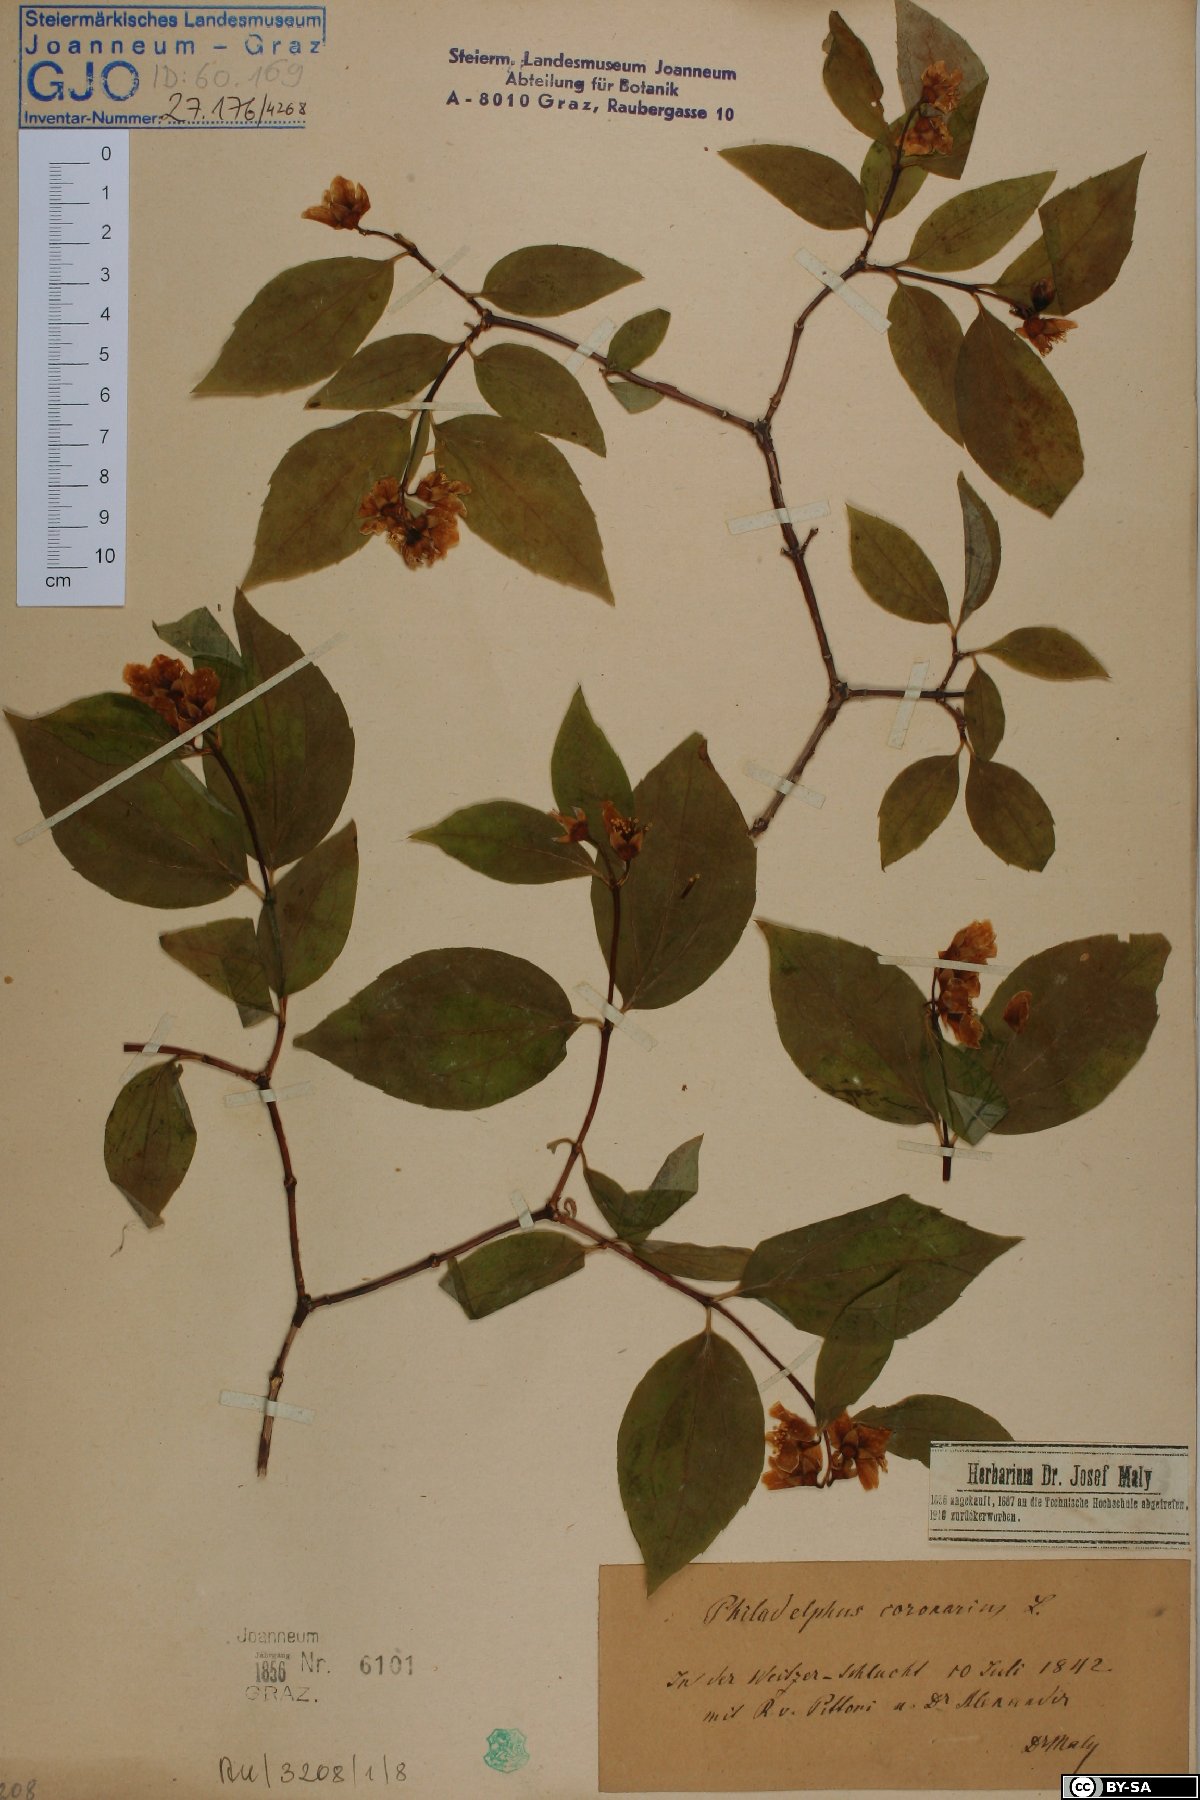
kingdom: Plantae
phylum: Tracheophyta
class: Magnoliopsida
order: Cornales
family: Hydrangeaceae
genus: Philadelphus
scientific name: Philadelphus coronarius
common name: Mock orange
